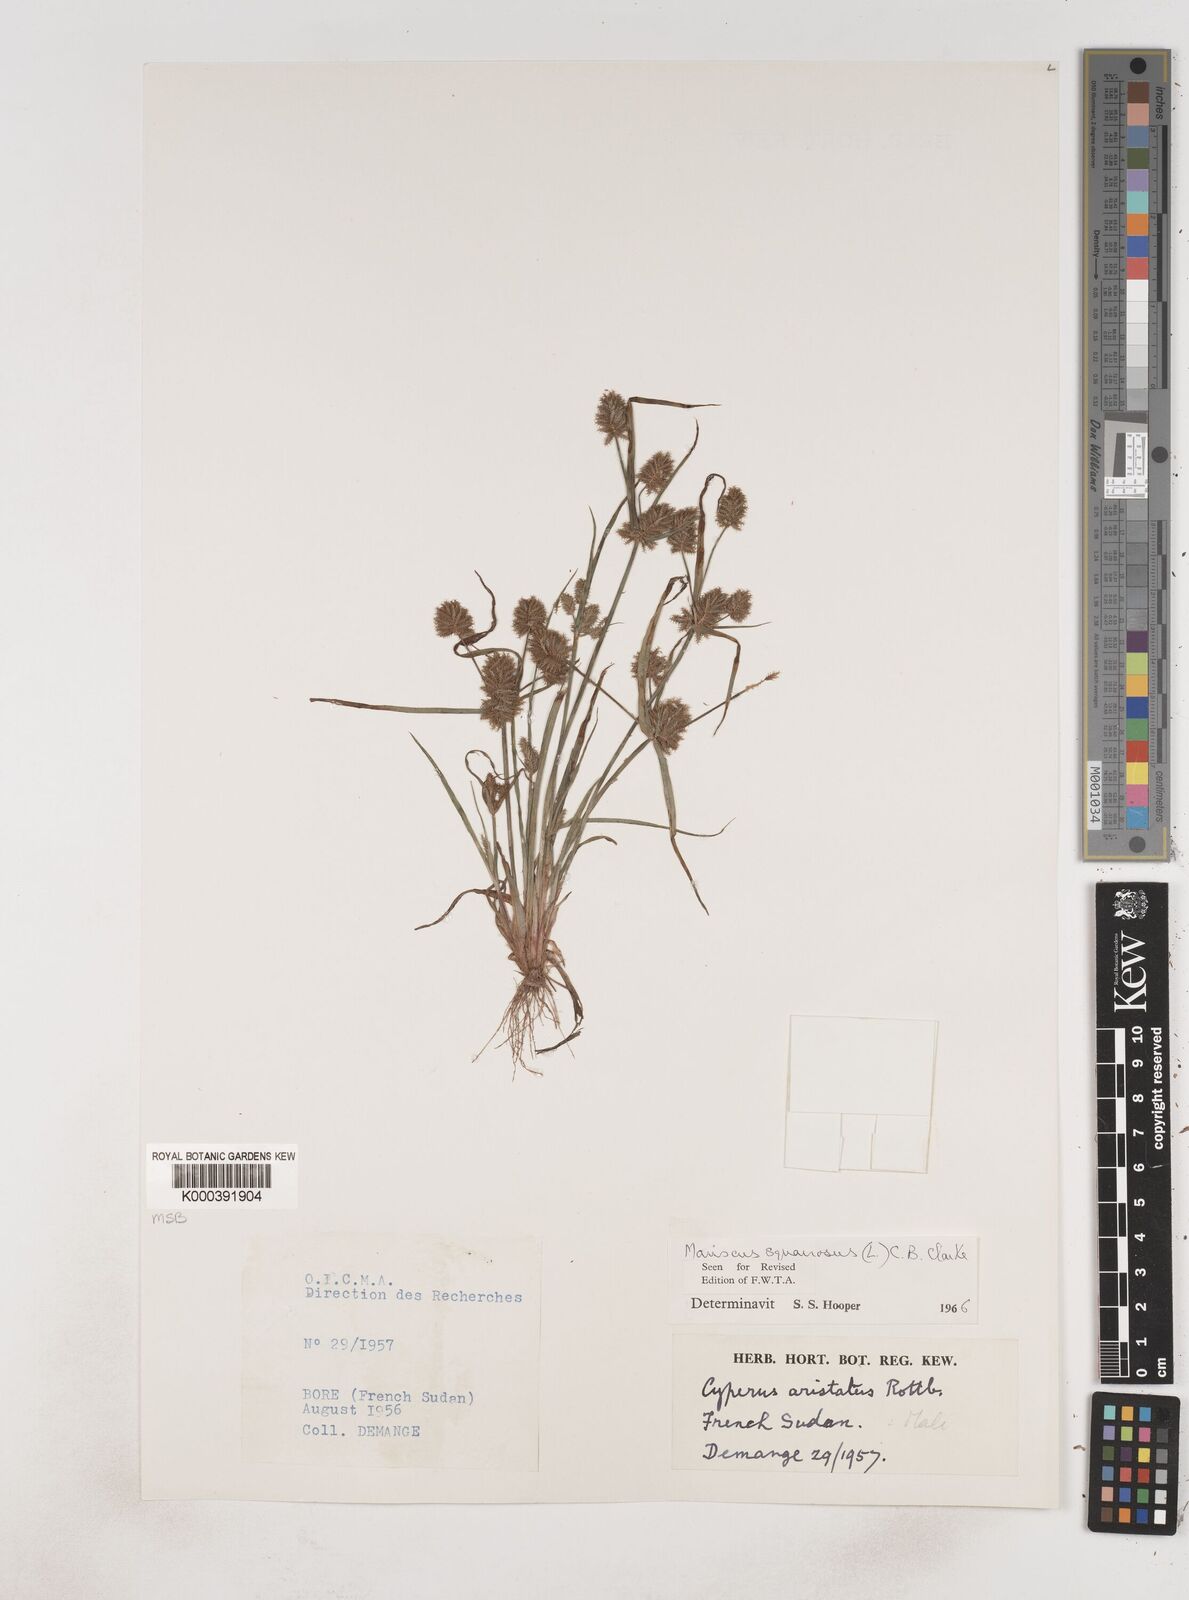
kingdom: Plantae
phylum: Tracheophyta
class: Liliopsida
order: Poales
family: Cyperaceae
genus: Cyperus
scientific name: Cyperus squarrosus
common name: Awned cyperus
